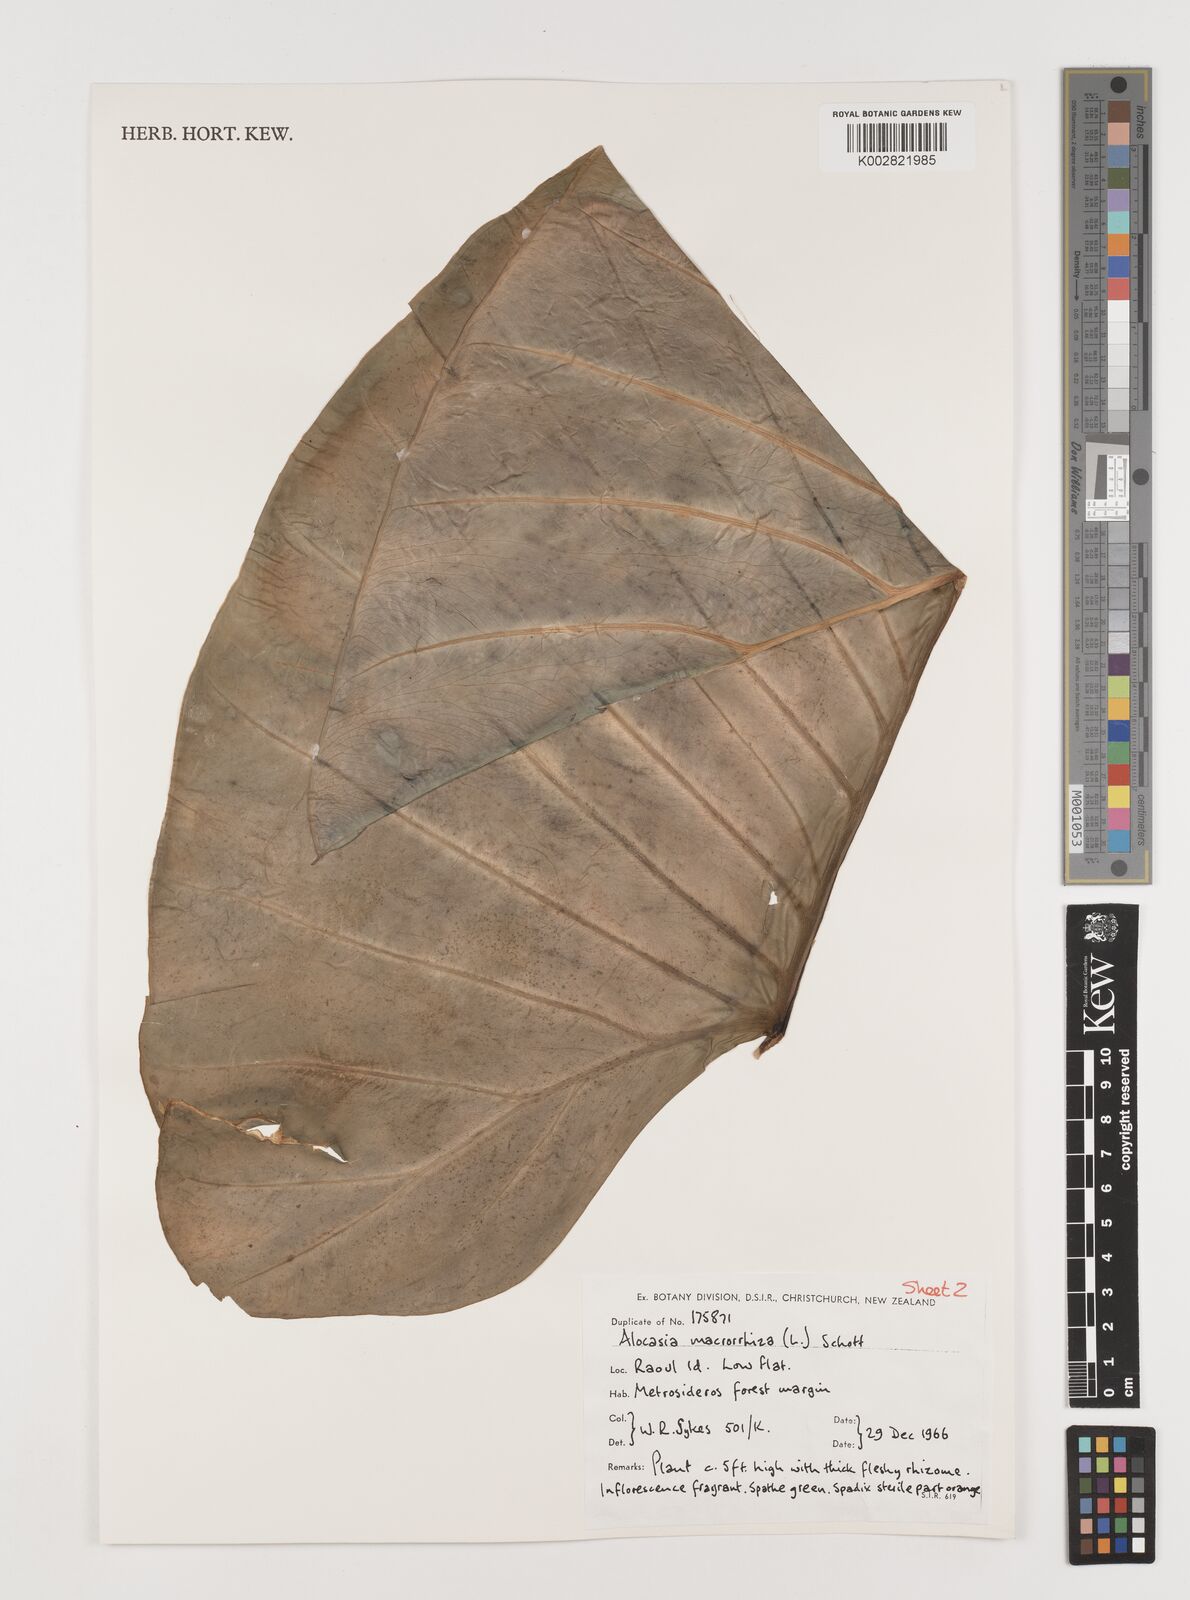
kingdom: Plantae
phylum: Tracheophyta
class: Liliopsida
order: Alismatales
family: Araceae
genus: Alocasia
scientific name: Alocasia macrorrhizos
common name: Giant taro
